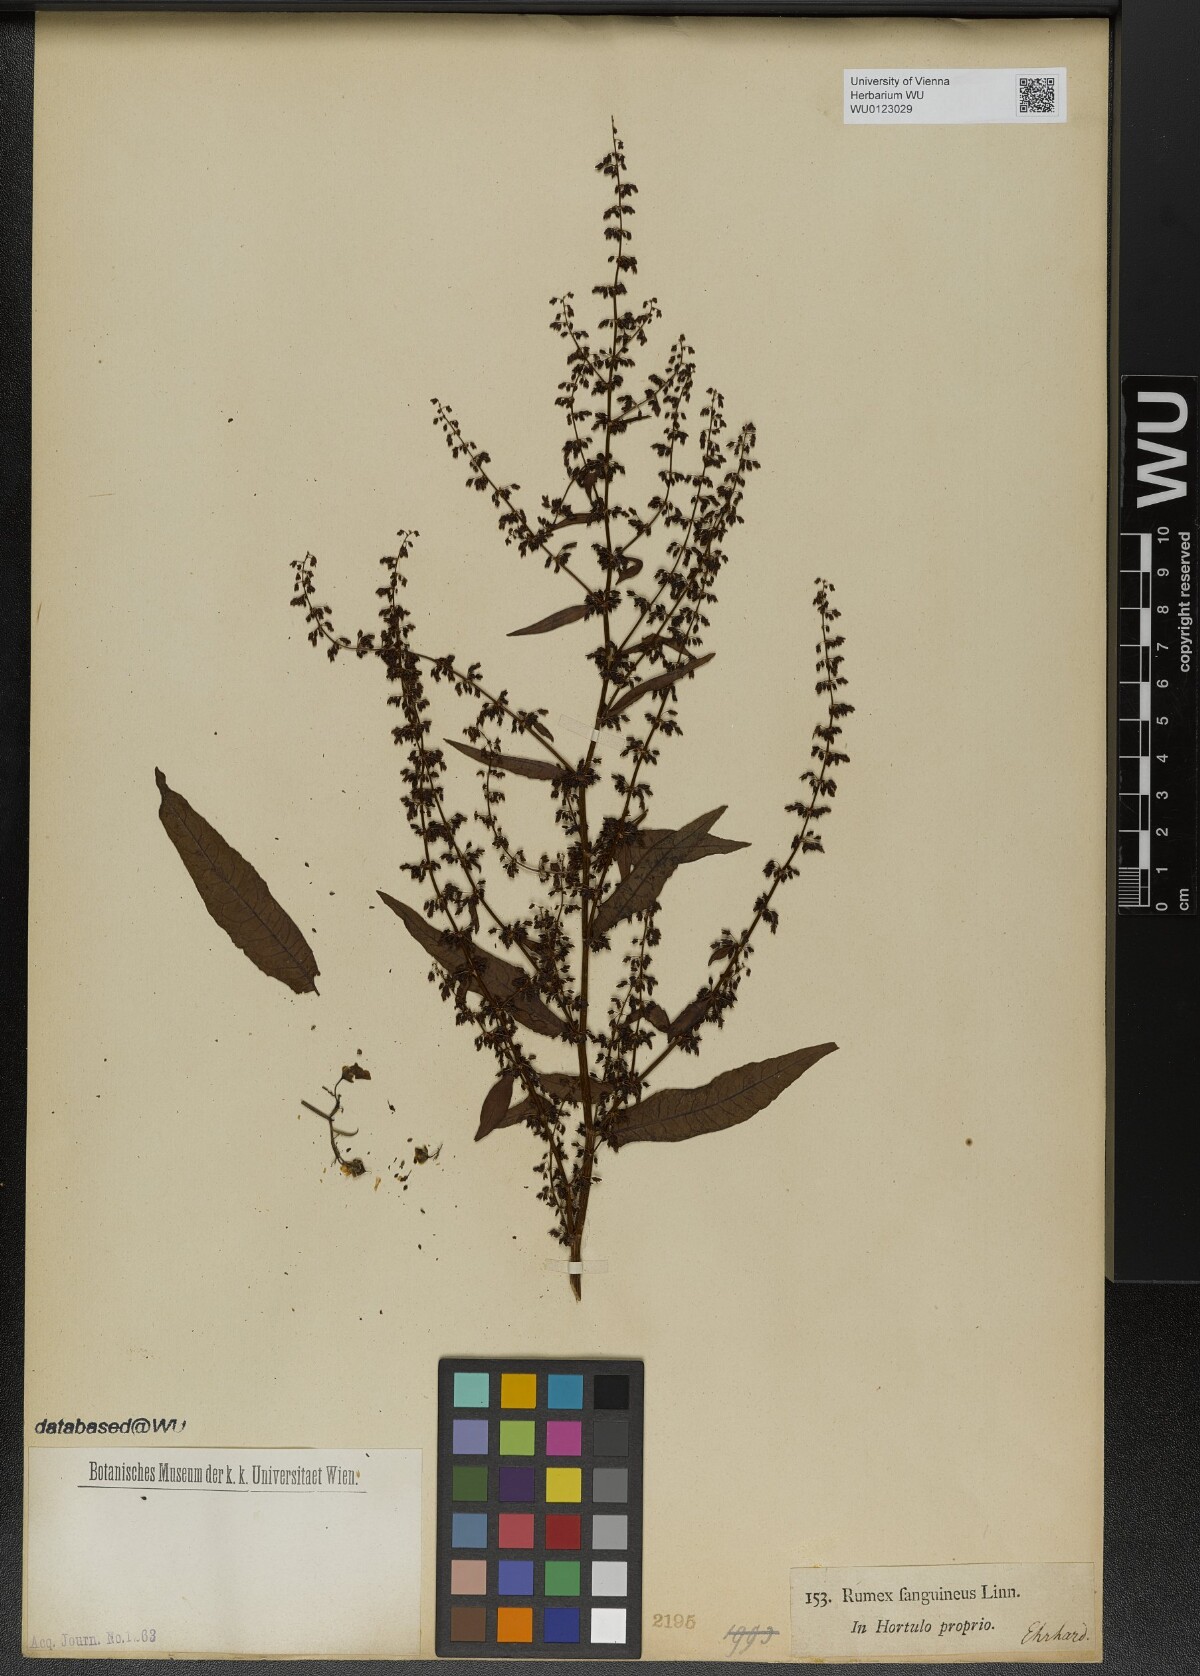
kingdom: Plantae
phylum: Tracheophyta
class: Magnoliopsida
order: Caryophyllales
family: Polygonaceae
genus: Rumex
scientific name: Rumex sanguineus
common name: Wood dock
